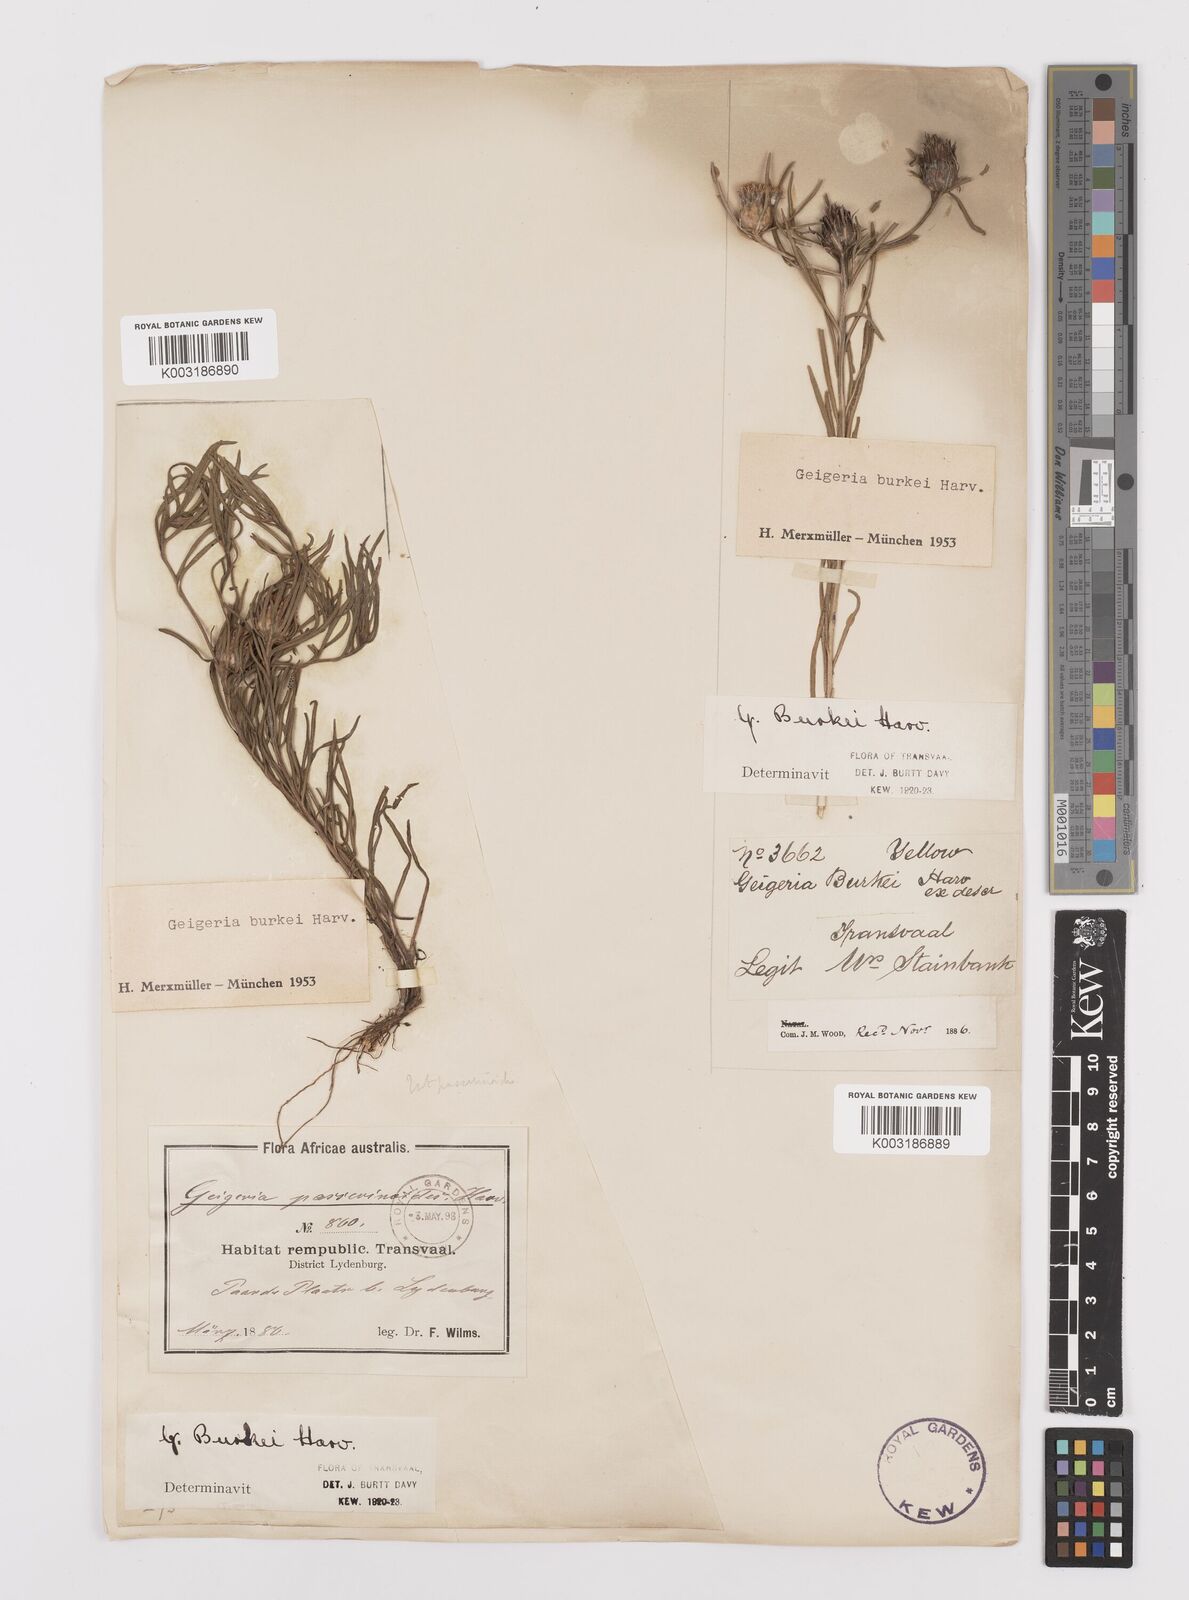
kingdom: Plantae
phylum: Tracheophyta
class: Magnoliopsida
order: Asterales
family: Asteraceae
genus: Geigeria
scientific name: Geigeria burkei
